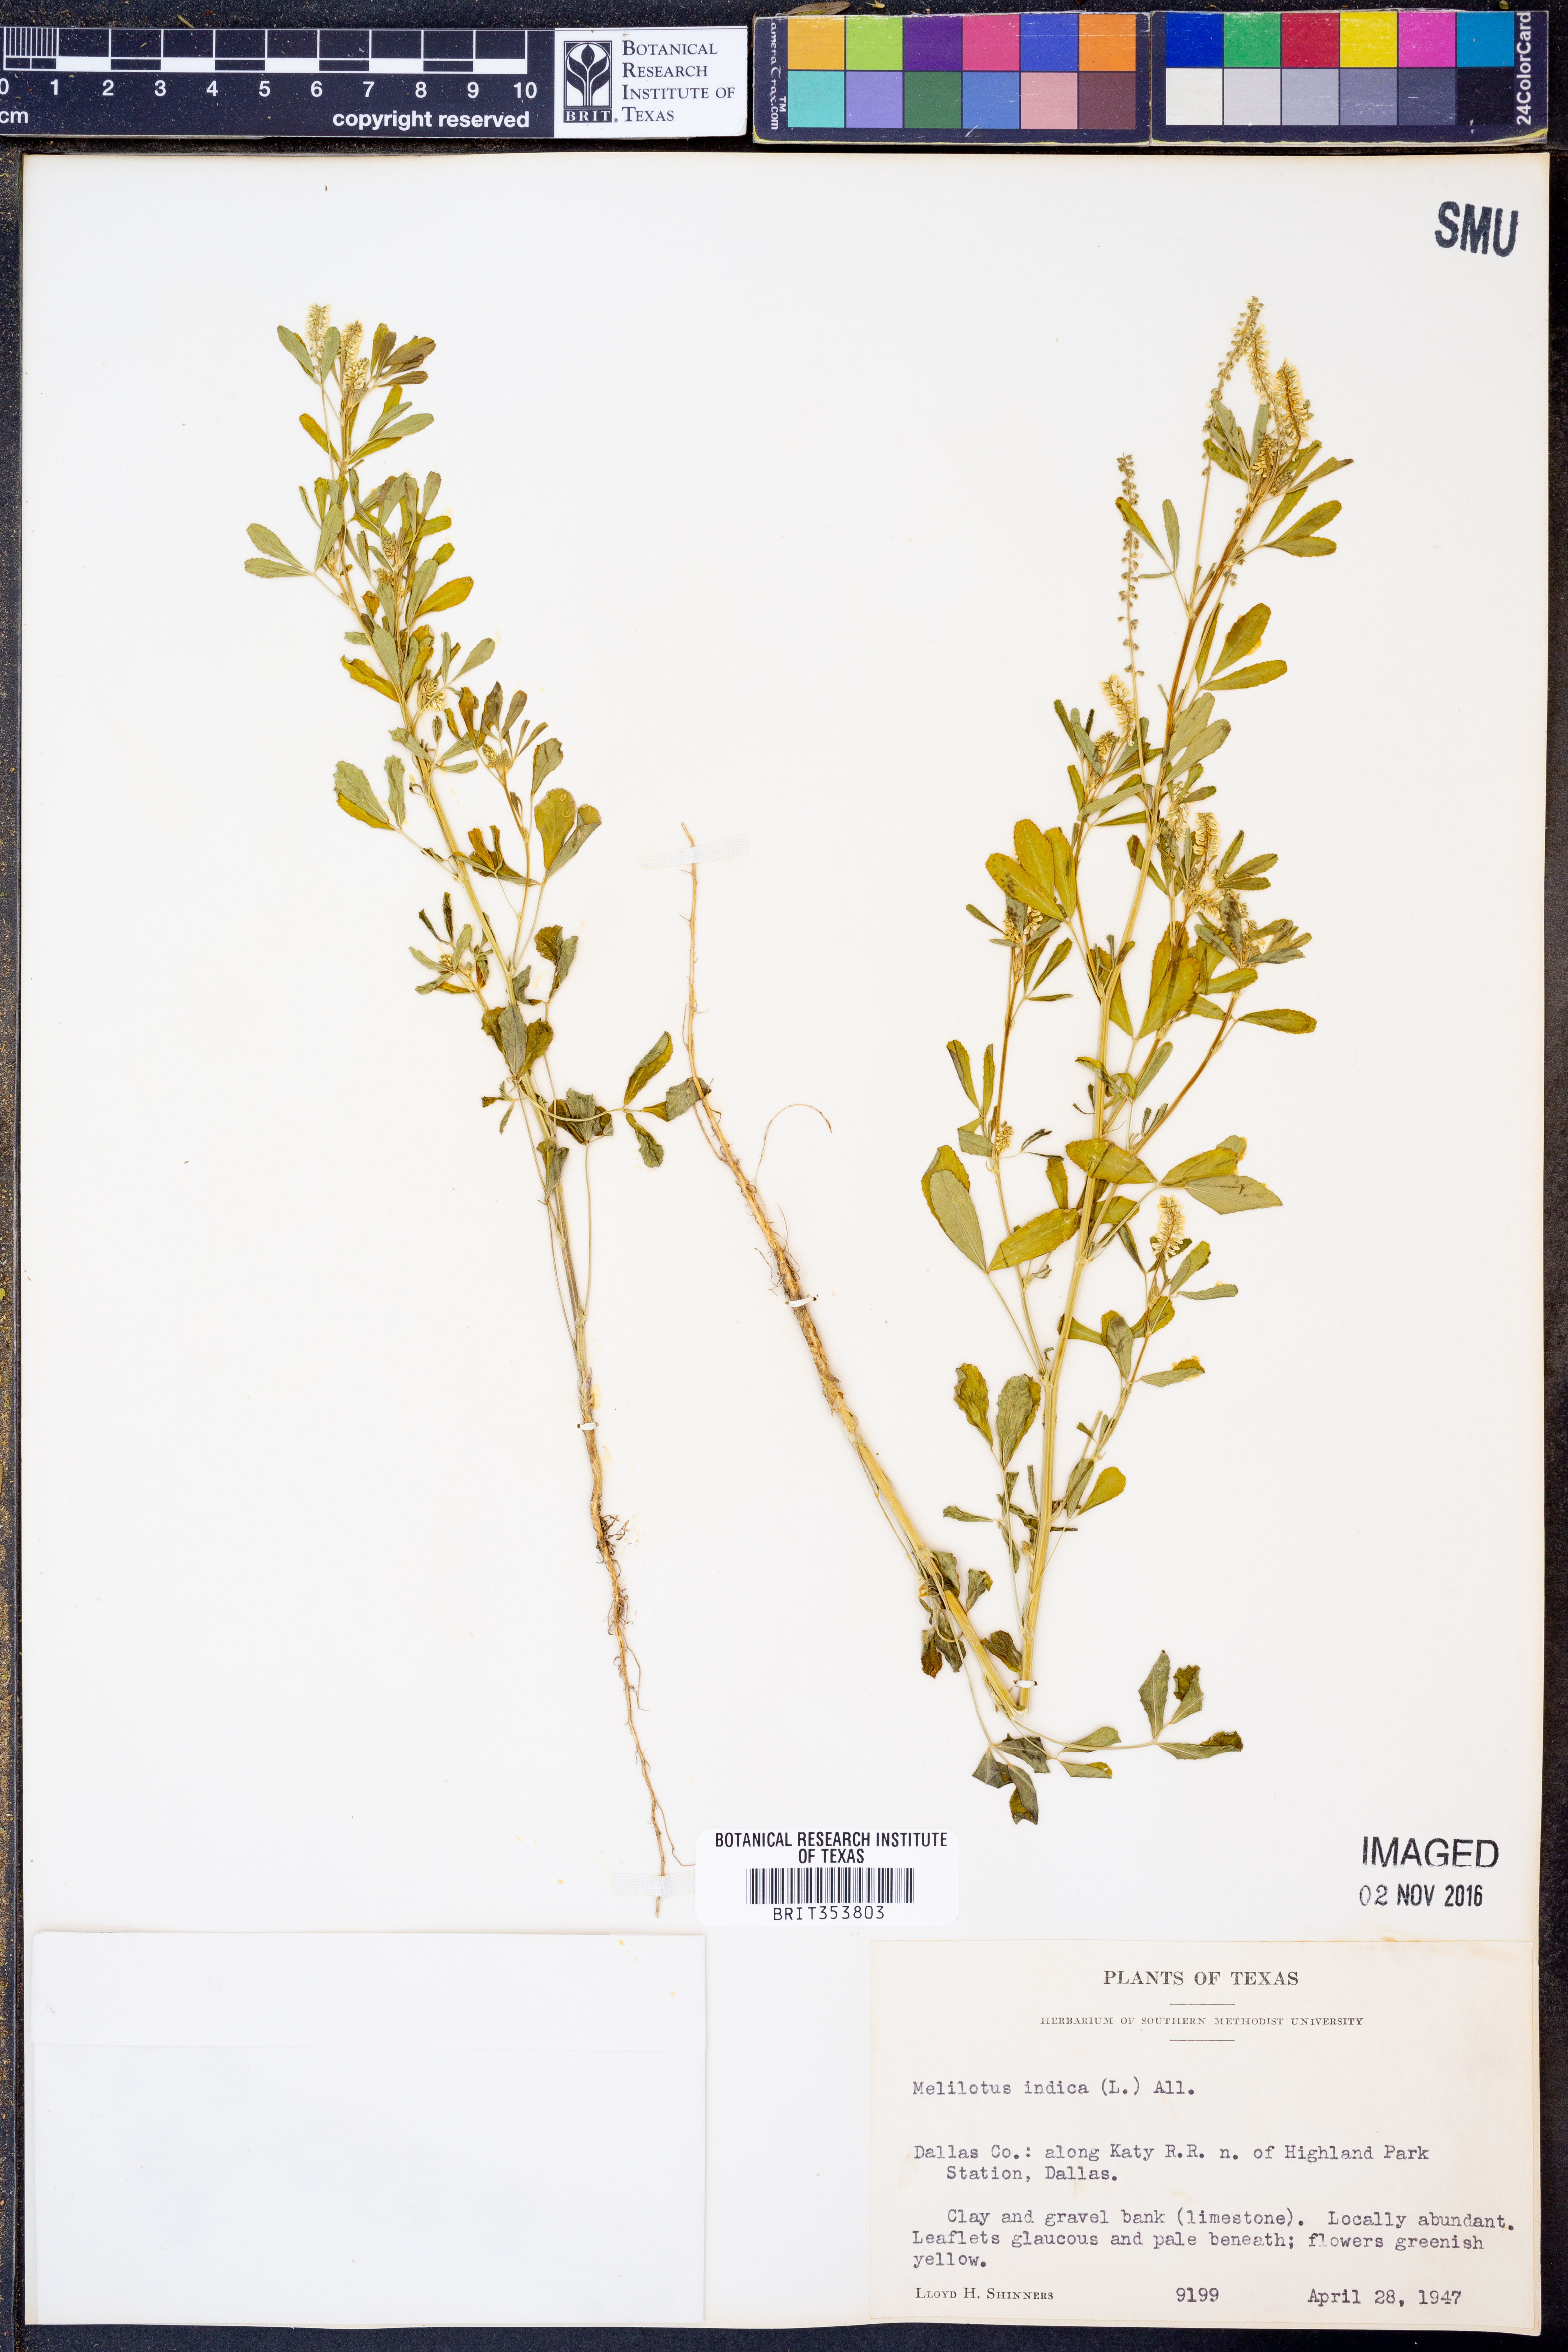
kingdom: Plantae
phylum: Tracheophyta
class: Magnoliopsida
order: Fabales
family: Fabaceae
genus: Melilotus
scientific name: Melilotus indicus
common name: Small melilot
